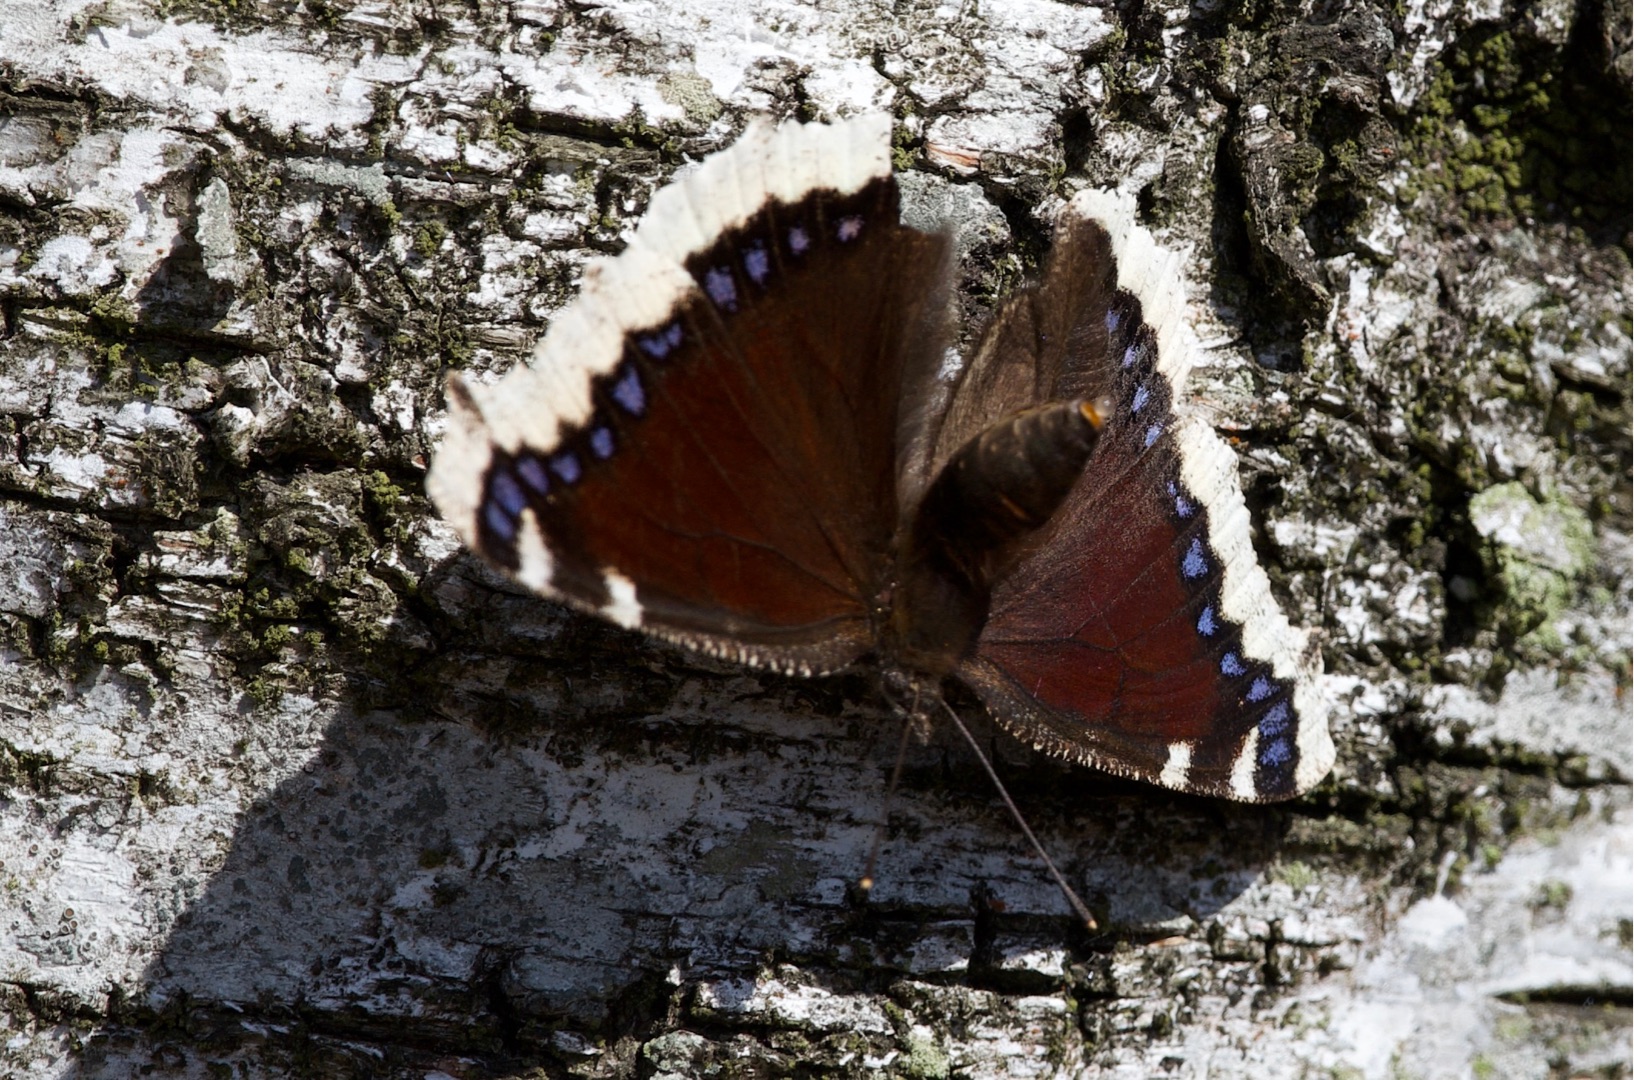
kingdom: Animalia
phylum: Arthropoda
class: Insecta
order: Lepidoptera
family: Nymphalidae
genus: Nymphalis
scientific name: Nymphalis antiopa
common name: Sørgekåbe
